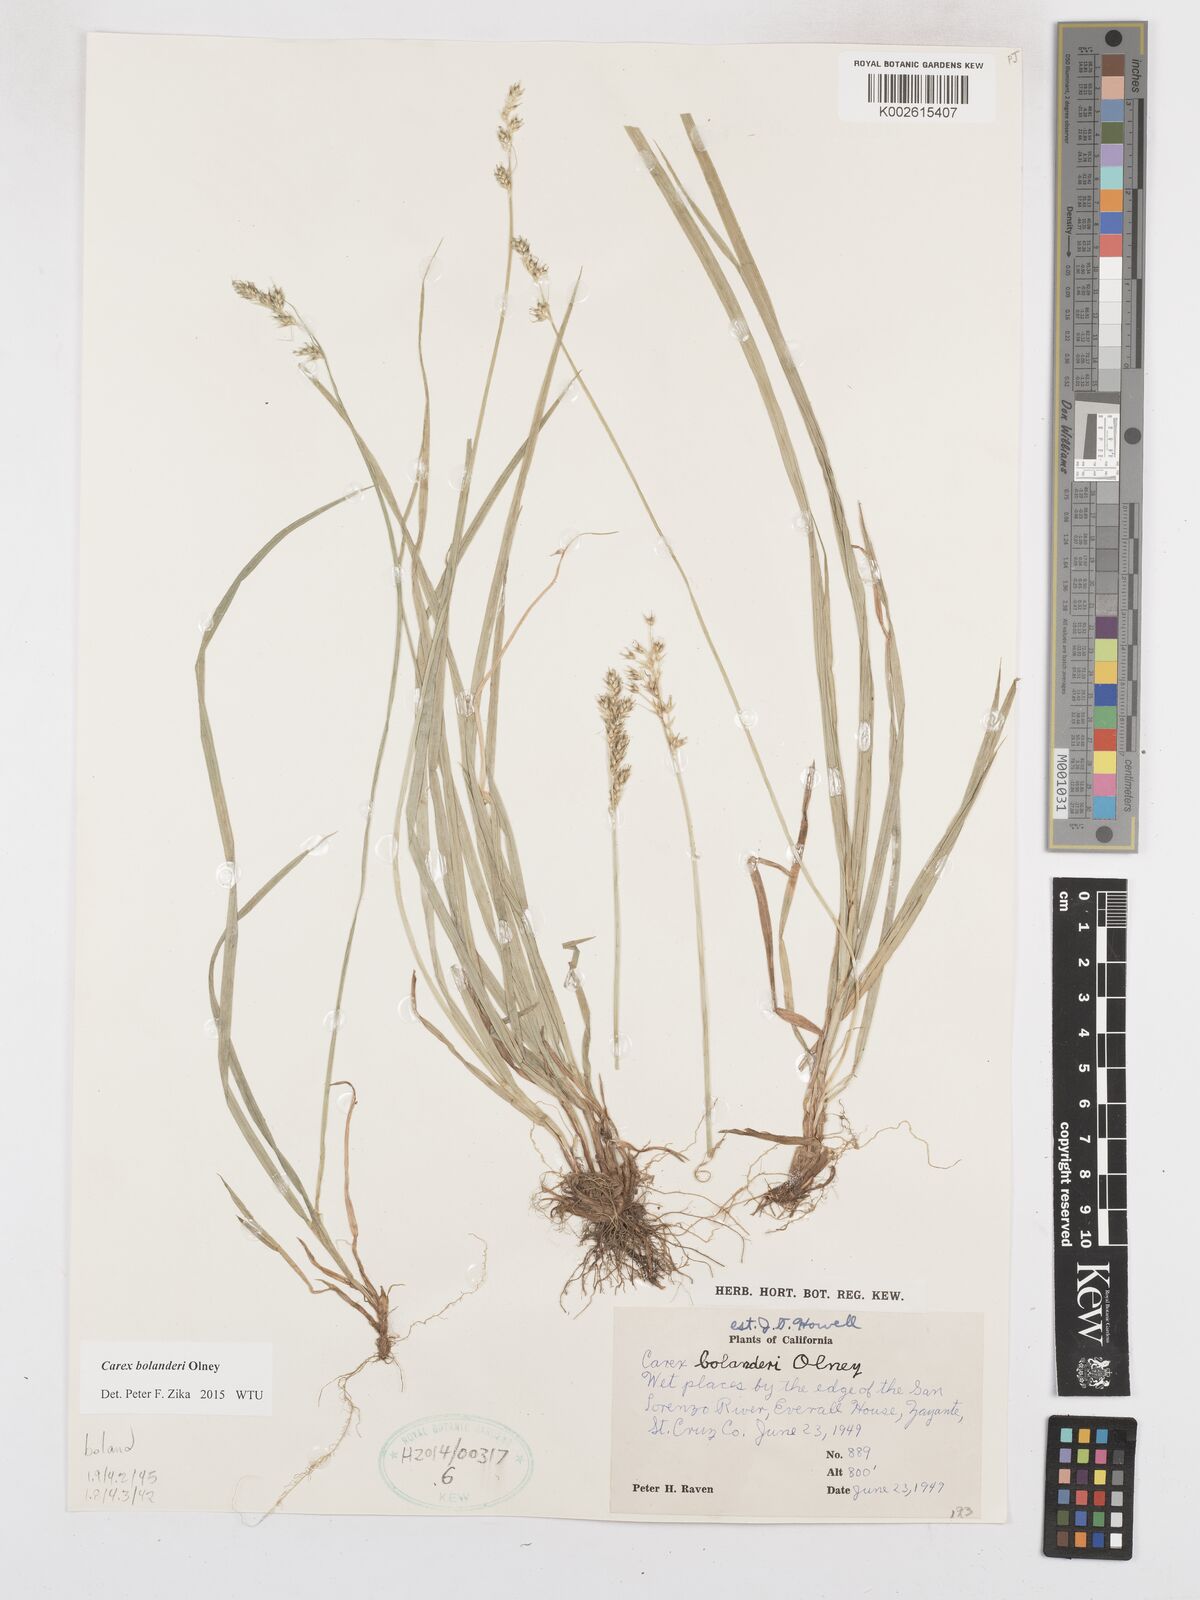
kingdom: Plantae
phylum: Tracheophyta
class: Liliopsida
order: Poales
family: Cyperaceae
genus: Carex
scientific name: Carex bolanderi
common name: Bolander's sedge
